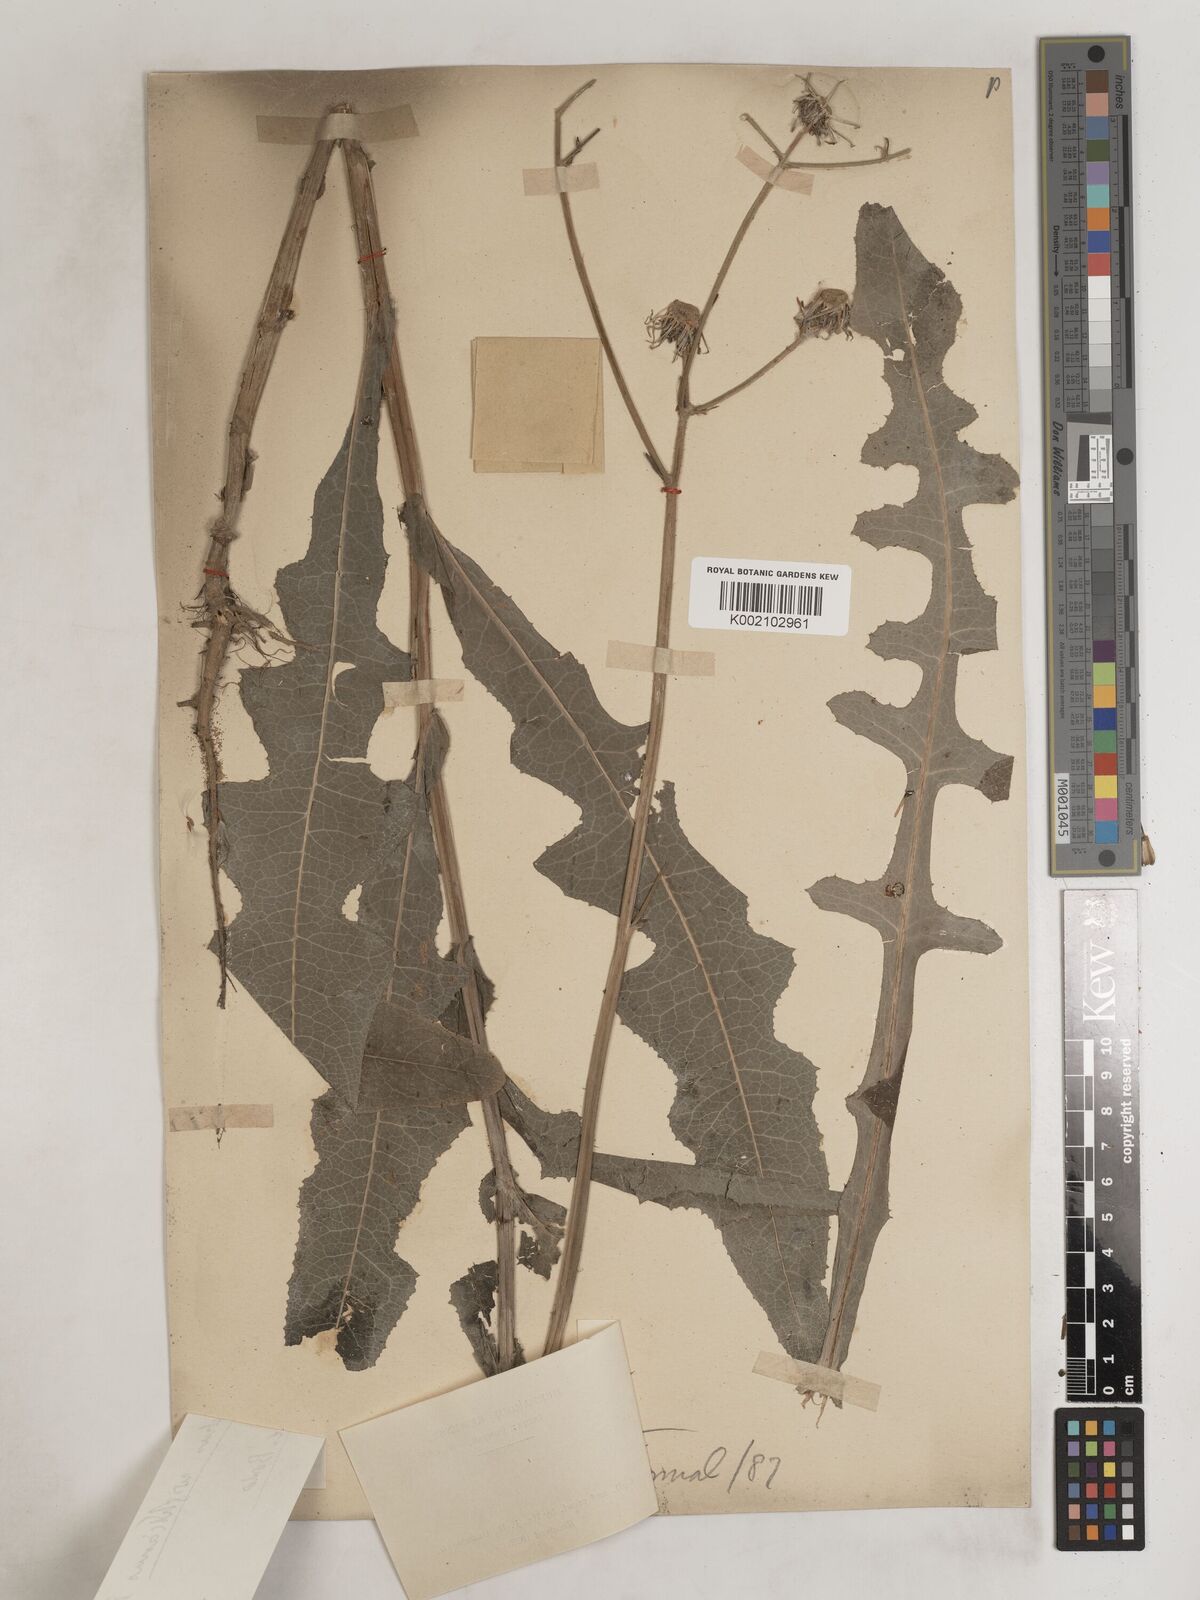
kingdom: Plantae
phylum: Tracheophyta
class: Magnoliopsida
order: Asterales
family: Asteraceae
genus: Sonchus
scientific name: Sonchus arvensis
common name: Perennial sow-thistle
